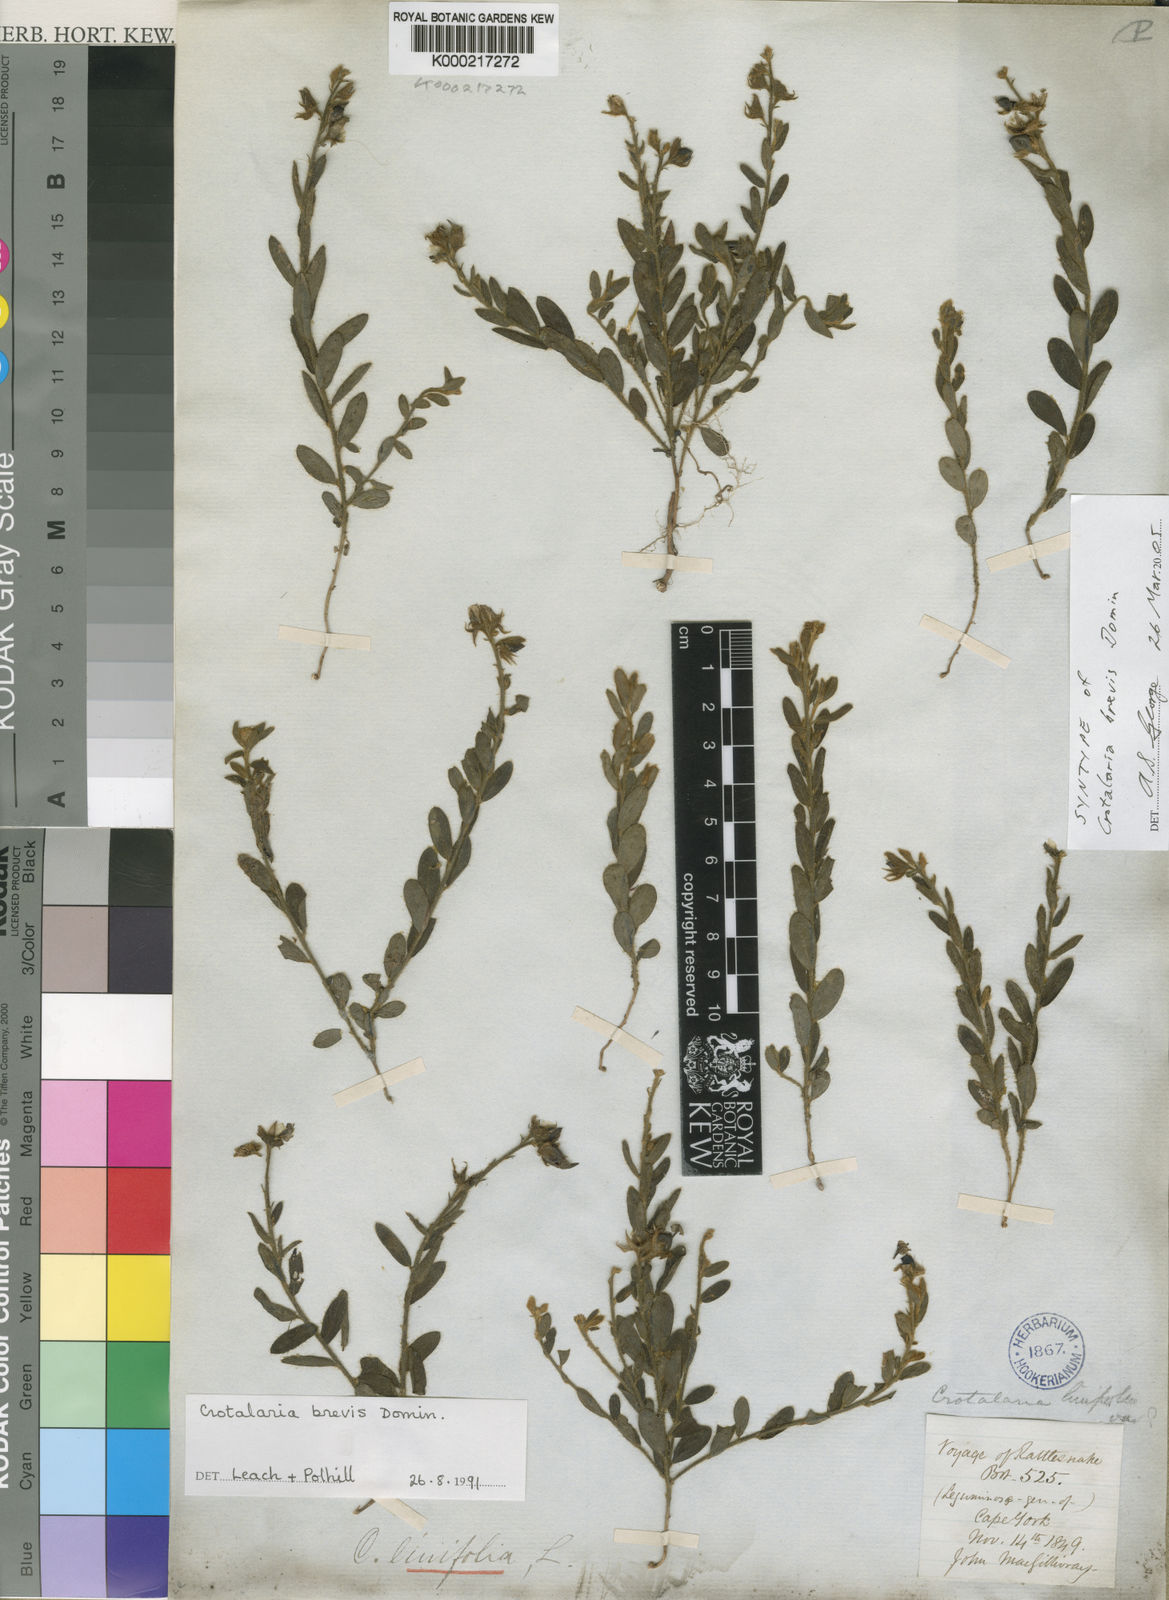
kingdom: Plantae
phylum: Tracheophyta
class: Magnoliopsida
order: Fabales
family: Fabaceae
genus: Crotalaria
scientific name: Crotalaria brevis
